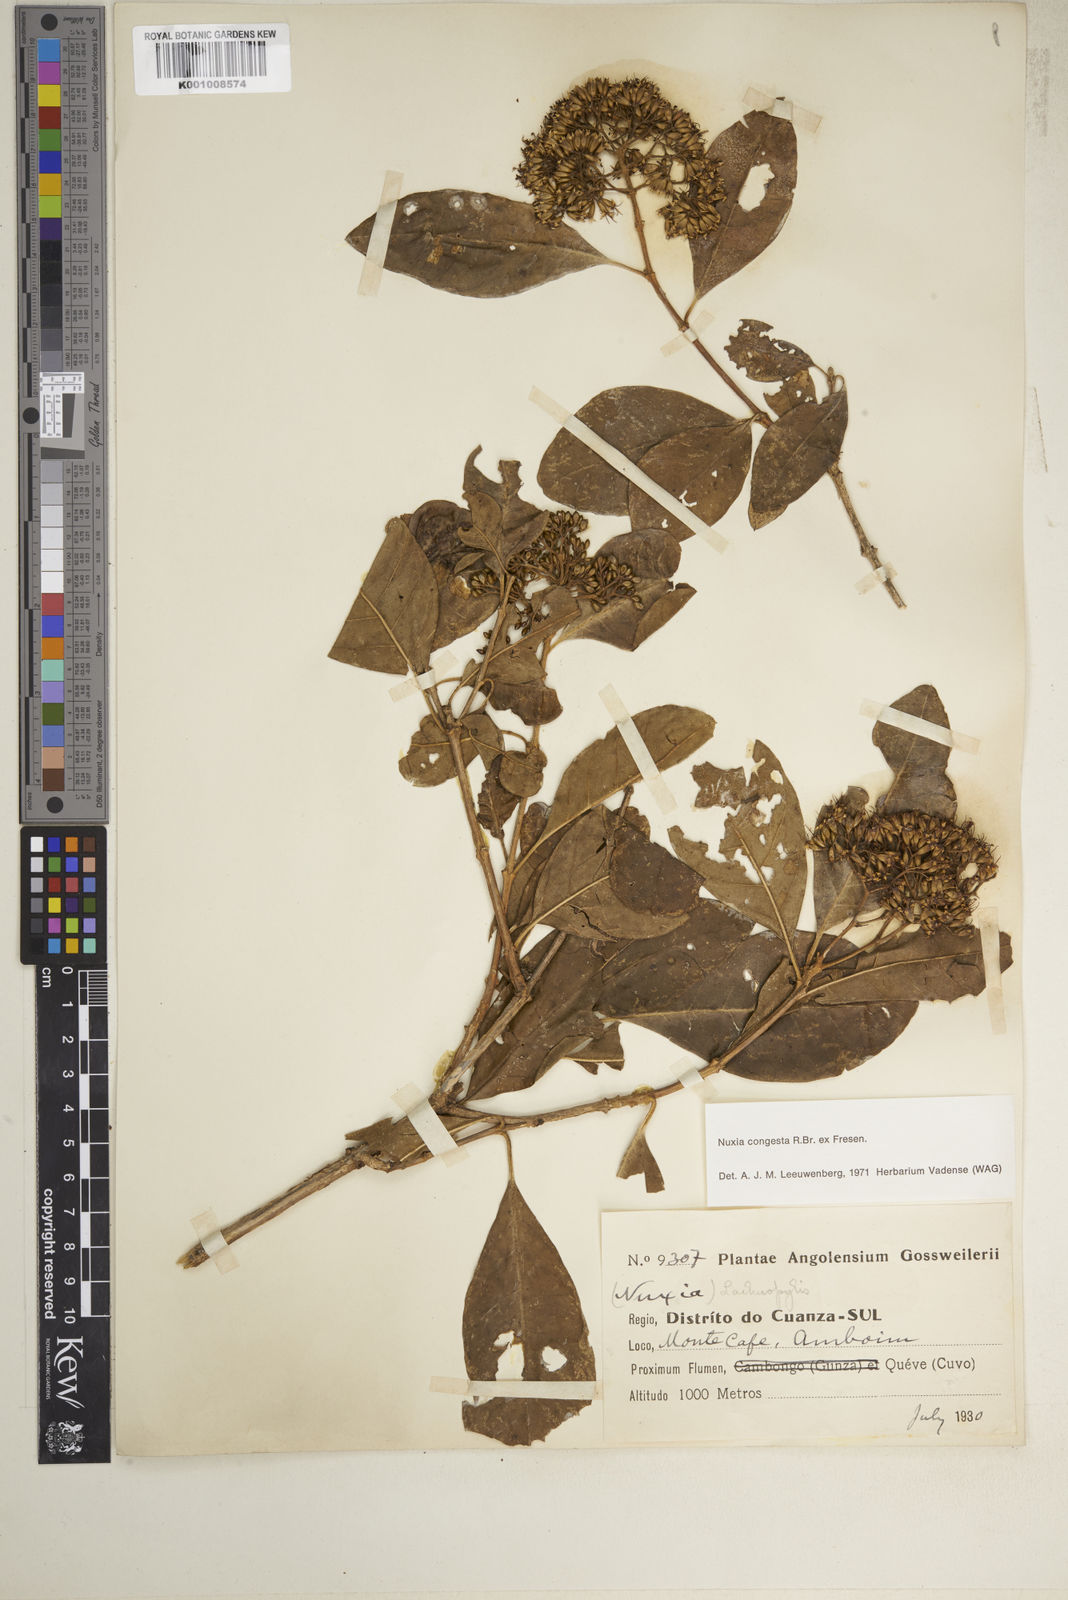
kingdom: Plantae
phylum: Tracheophyta
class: Magnoliopsida
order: Lamiales
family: Stilbaceae
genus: Nuxia
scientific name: Nuxia congesta
